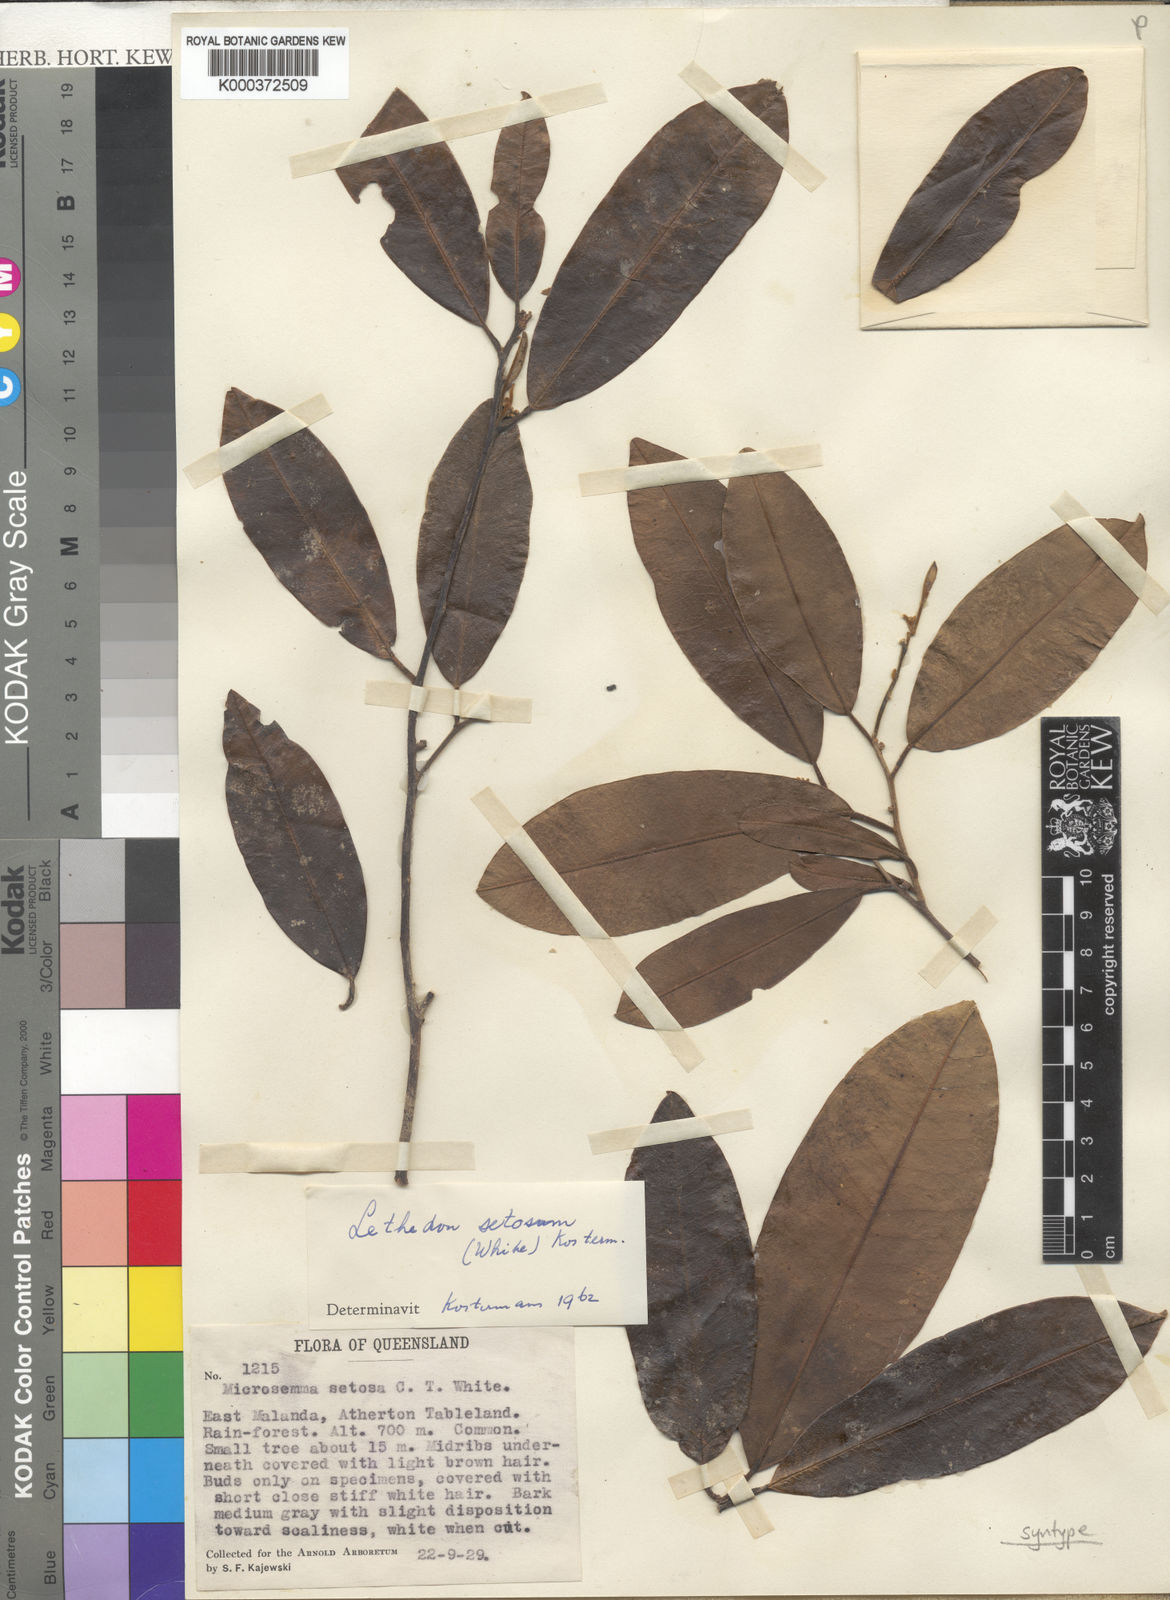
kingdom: Plantae
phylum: Tracheophyta
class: Magnoliopsida
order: Malvales
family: Thymelaeaceae
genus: Lethedon
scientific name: Lethedon setosa
